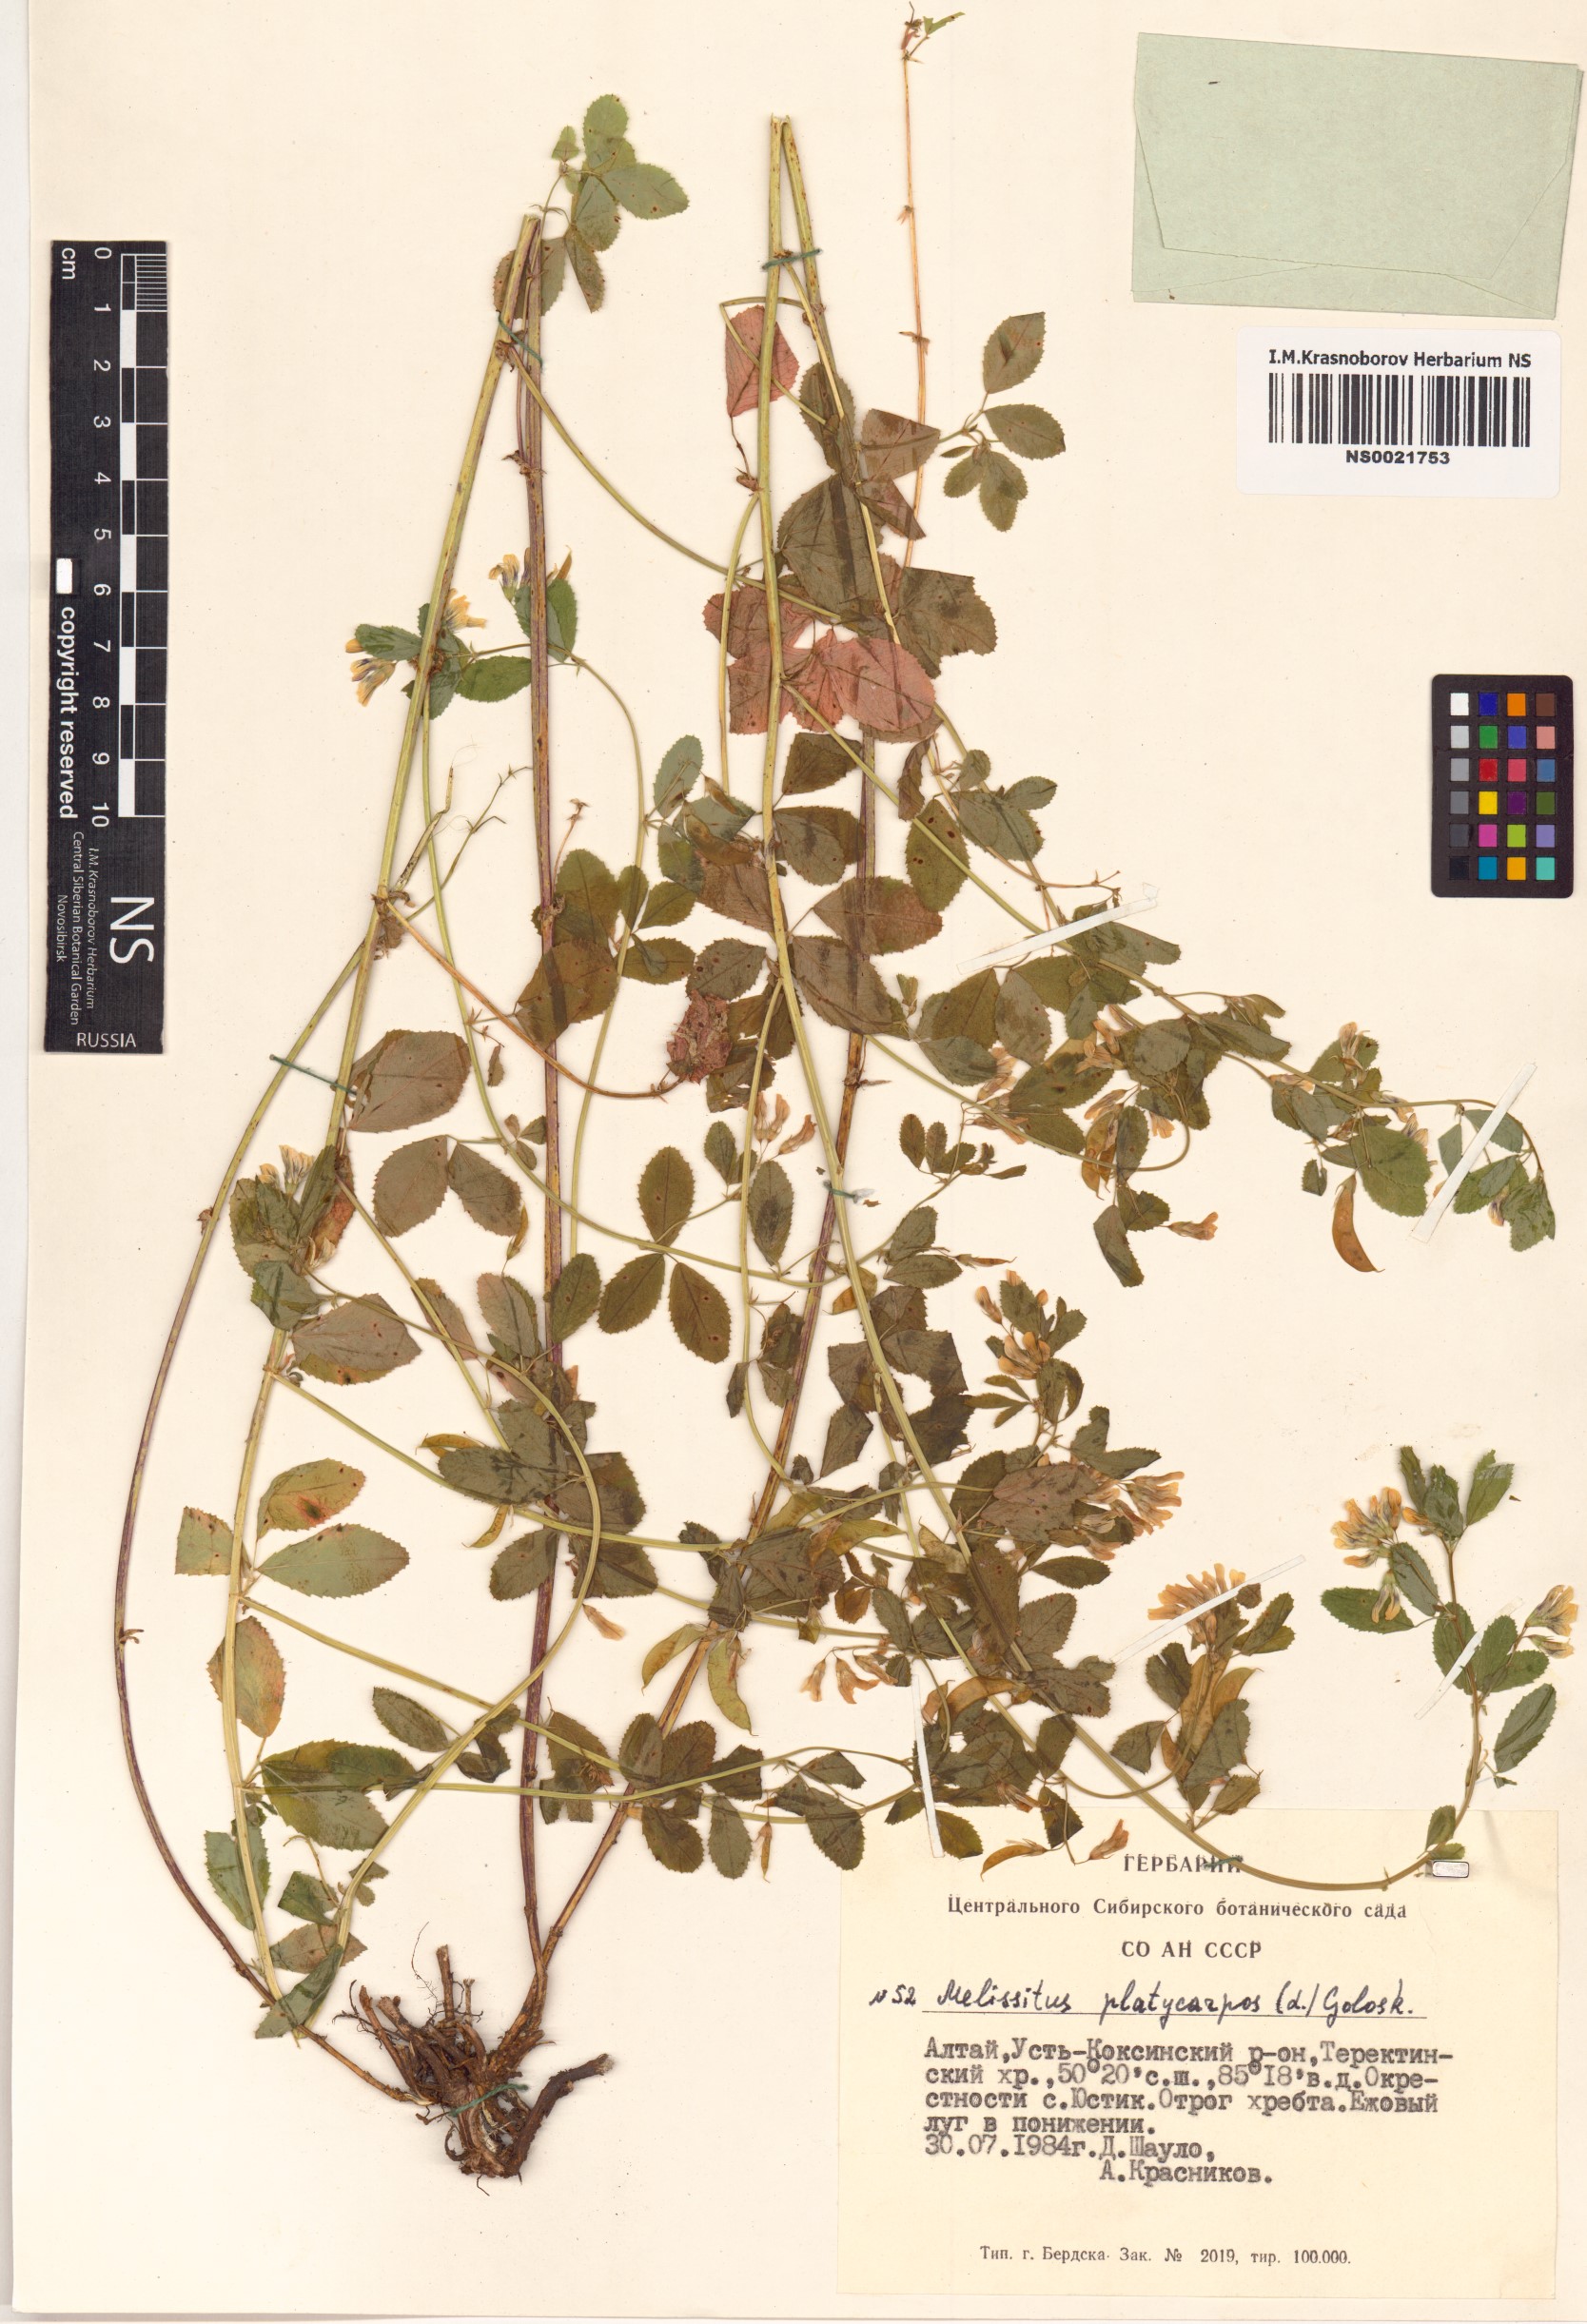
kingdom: Plantae
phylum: Tracheophyta
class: Magnoliopsida
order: Fabales
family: Fabaceae
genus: Medicago
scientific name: Medicago platycarpos
